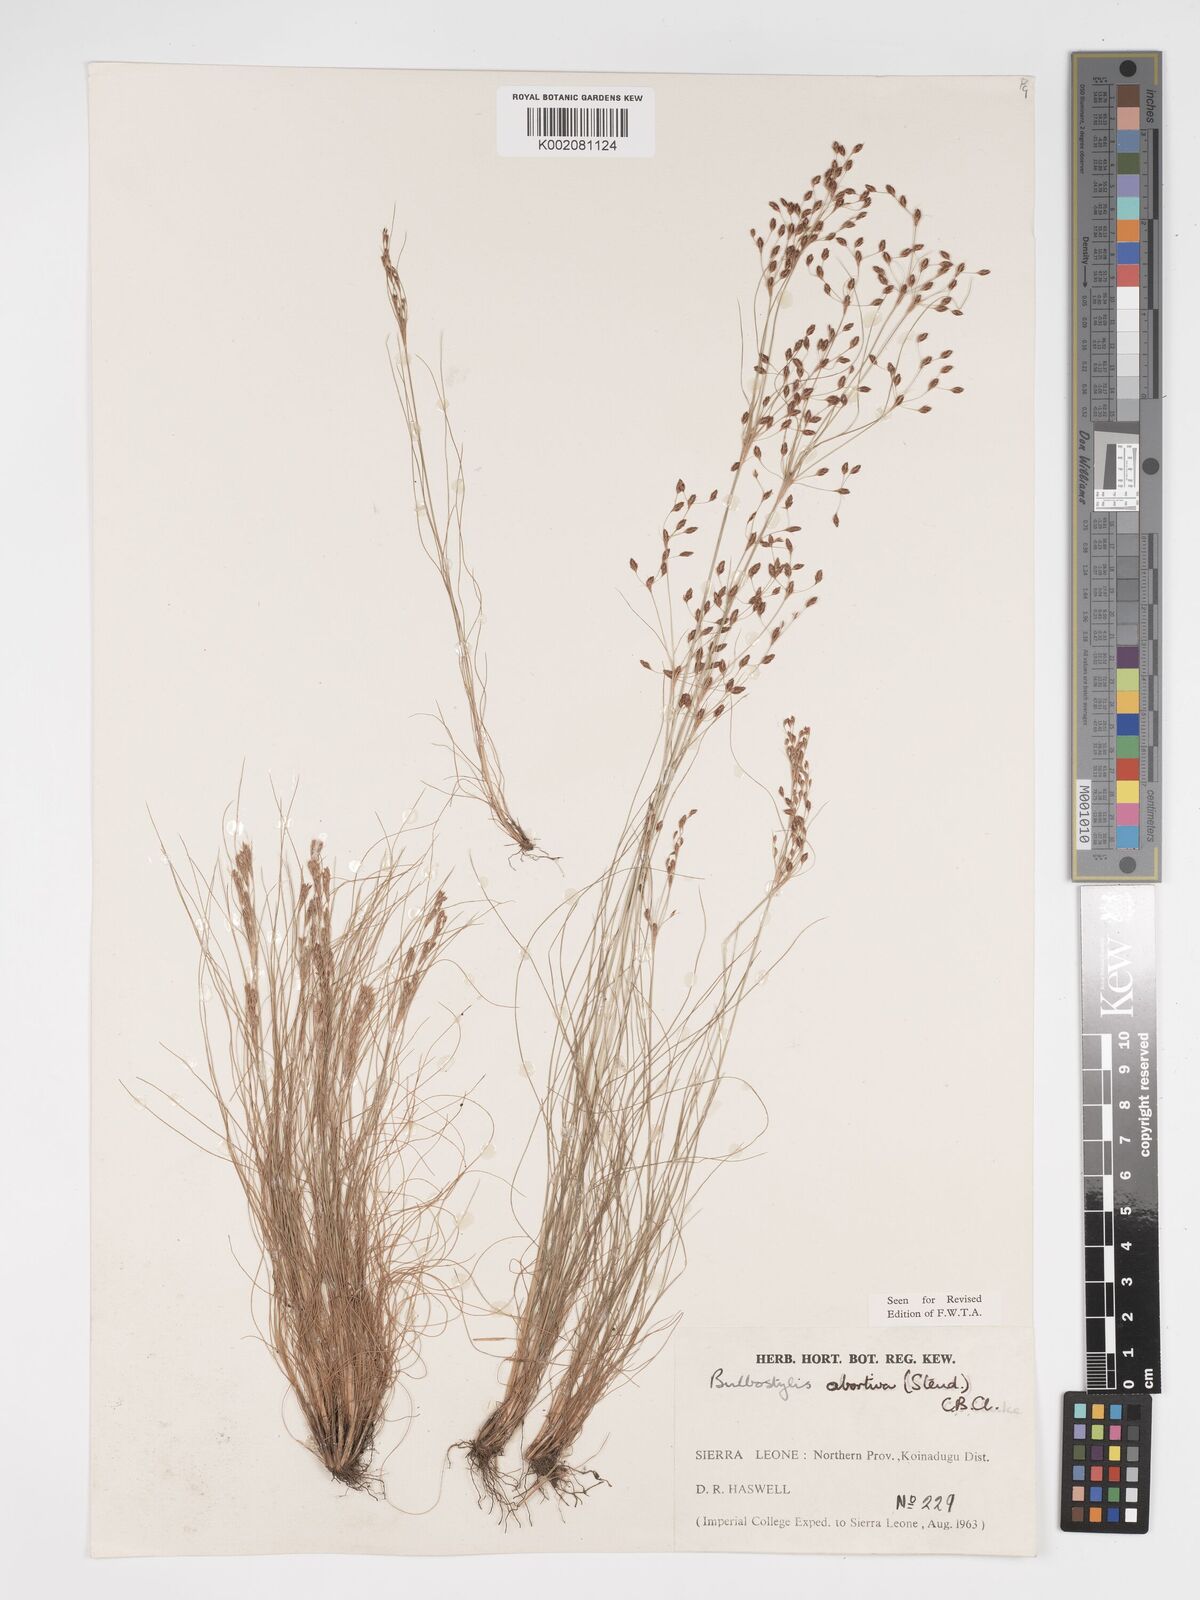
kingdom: Plantae
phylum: Tracheophyta
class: Liliopsida
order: Poales
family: Cyperaceae
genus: Bulbostylis
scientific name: Bulbostylis abortiva
